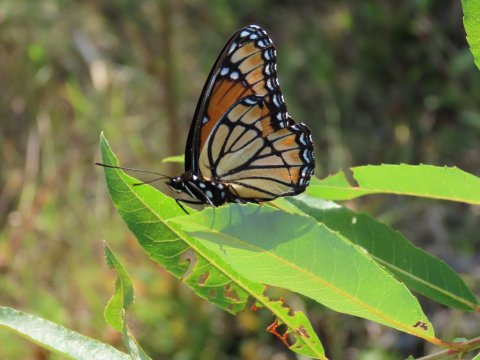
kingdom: Animalia
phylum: Arthropoda
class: Insecta
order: Lepidoptera
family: Nymphalidae
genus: Limenitis
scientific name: Limenitis archippus
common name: Viceroy
